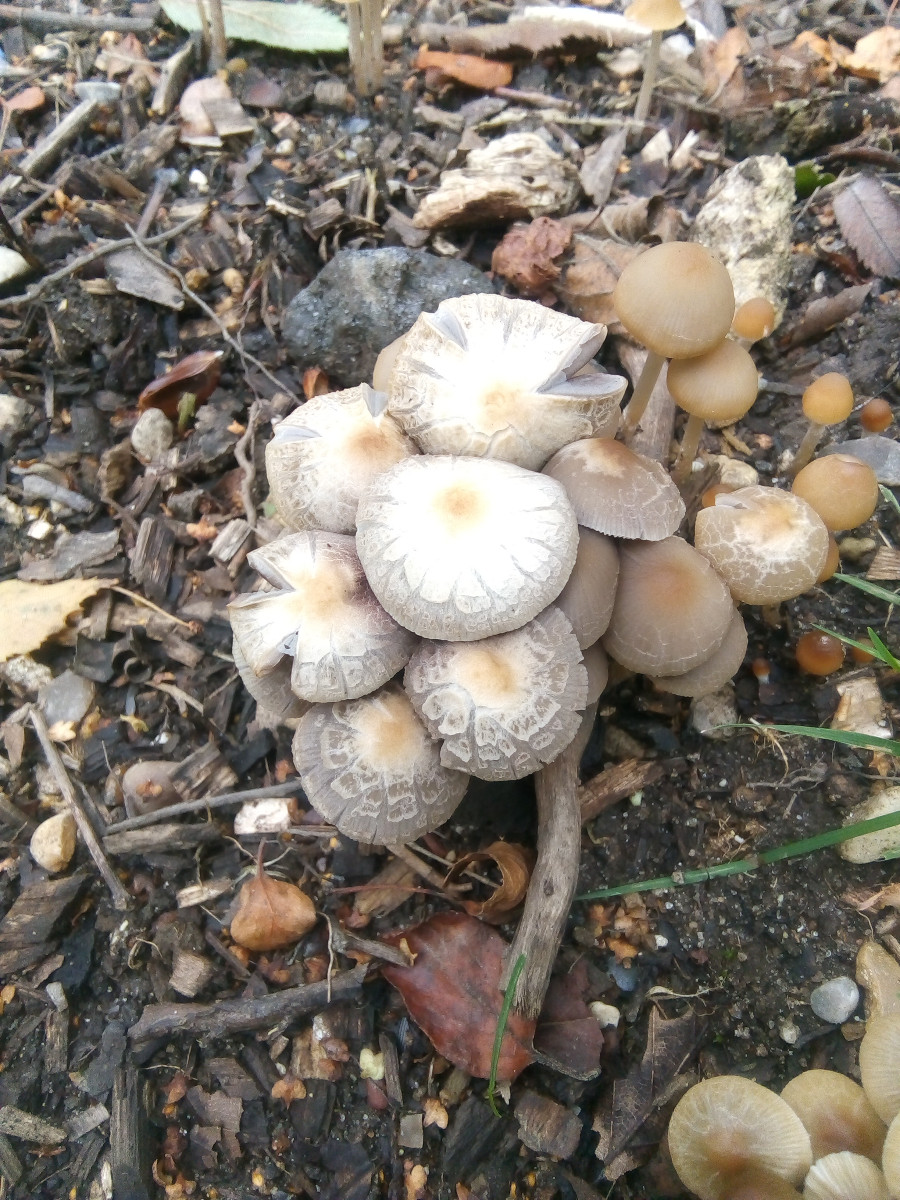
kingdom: Fungi
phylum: Basidiomycota
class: Agaricomycetes
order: Agaricales
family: Psathyrellaceae
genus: Psathyrella
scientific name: Psathyrella
